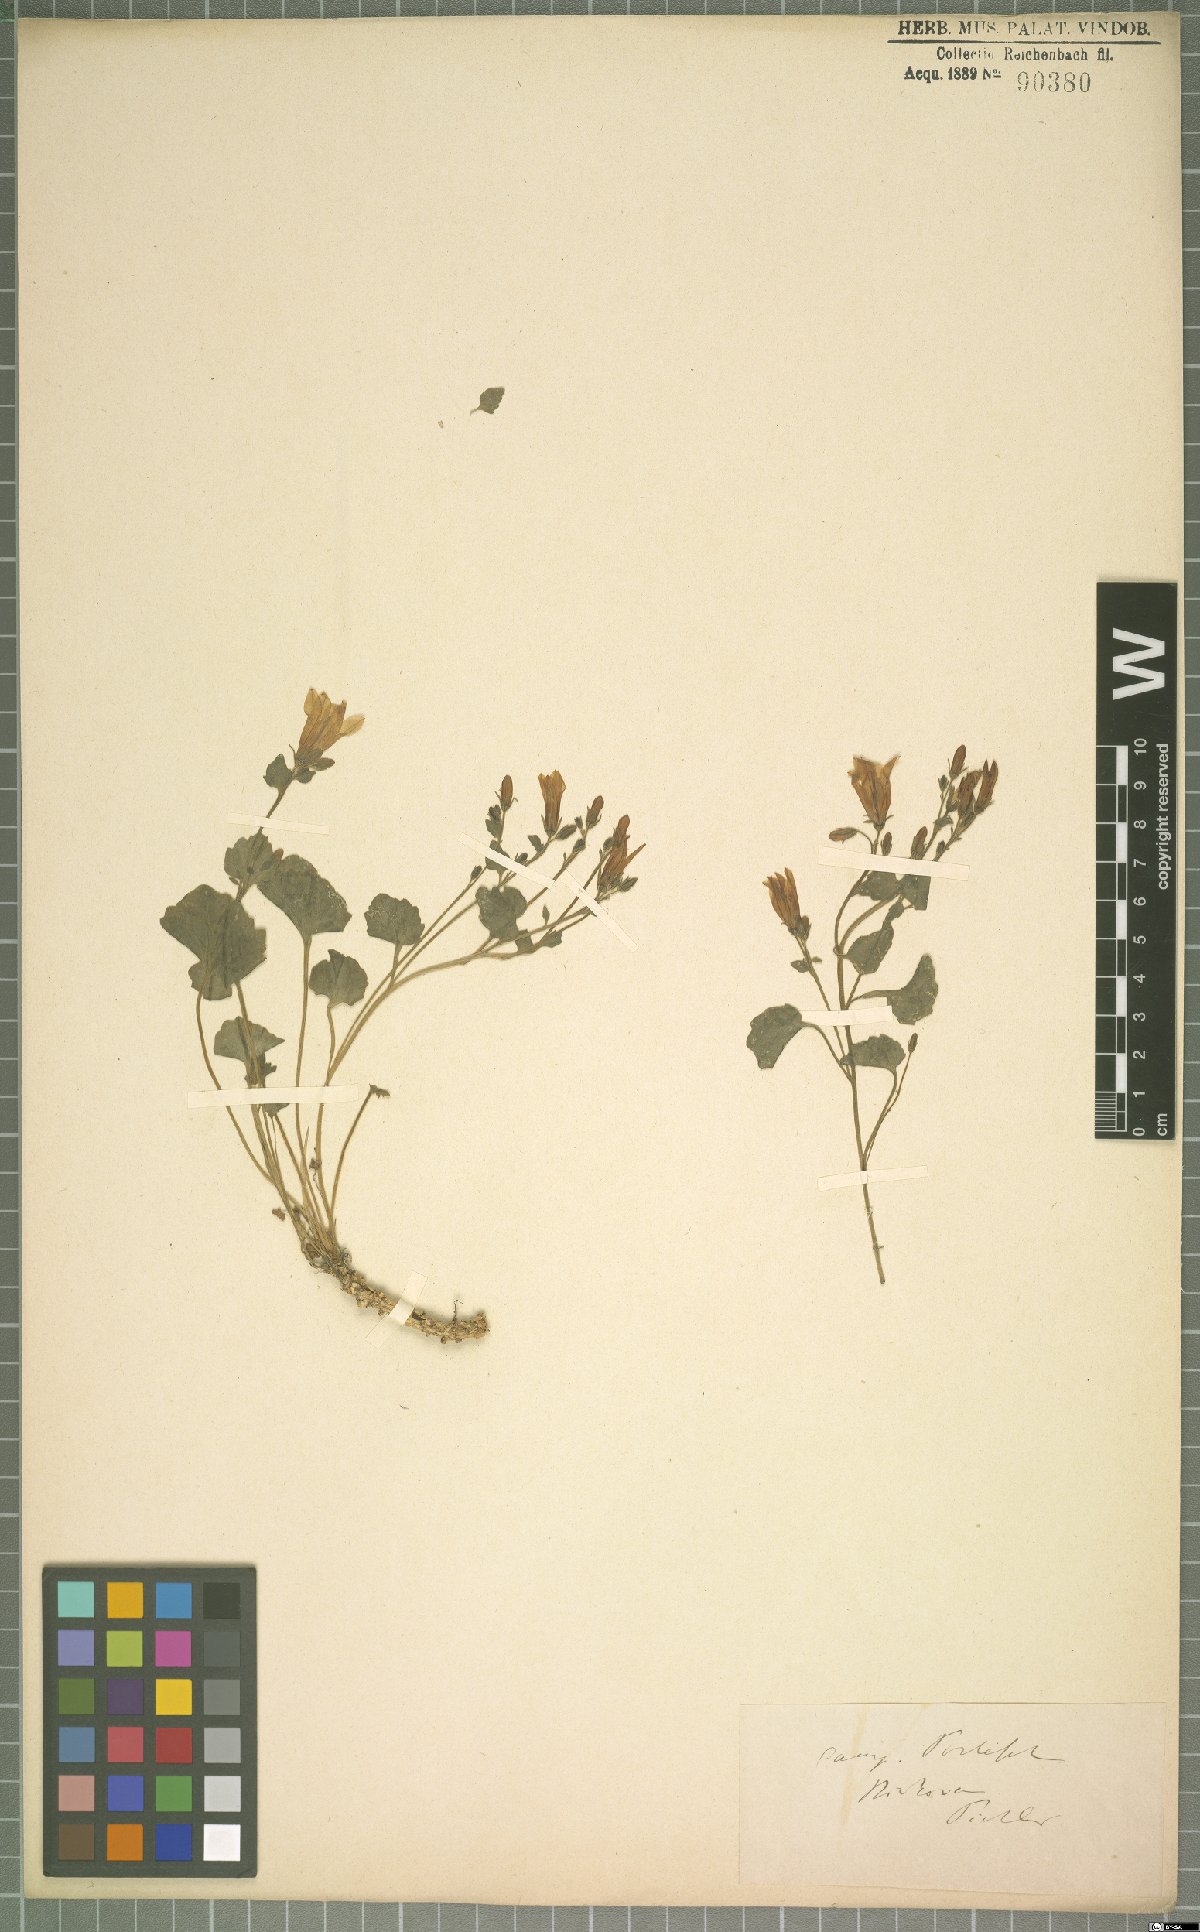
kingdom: Plantae
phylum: Tracheophyta
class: Magnoliopsida
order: Asterales
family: Campanulaceae
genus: Campanula
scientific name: Campanula portenschlagiana
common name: Adria bellflower
